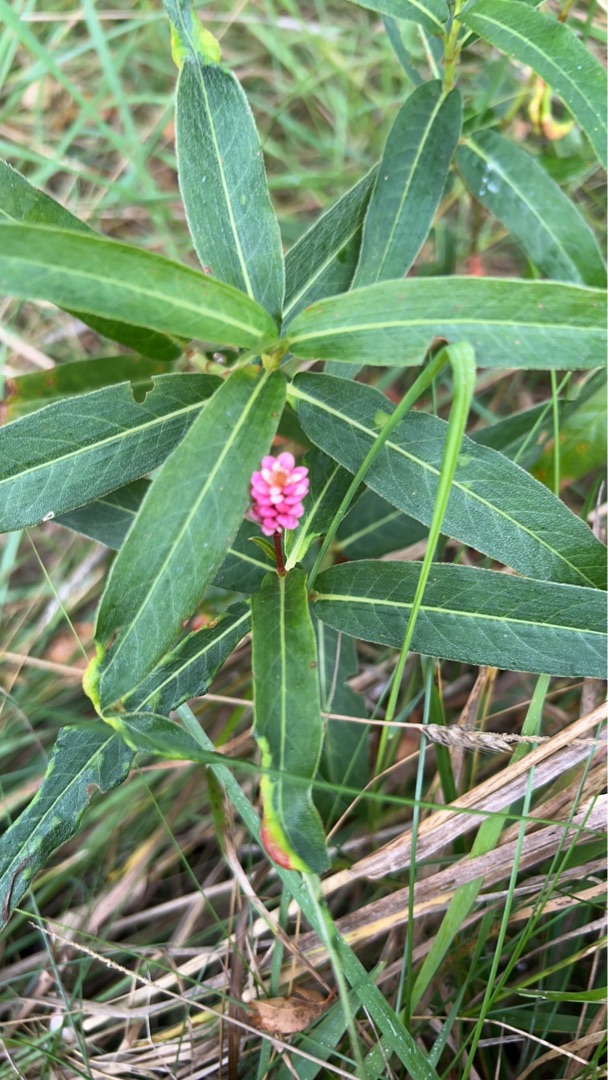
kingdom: Plantae
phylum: Tracheophyta
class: Magnoliopsida
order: Caryophyllales
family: Polygonaceae
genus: Persicaria
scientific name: Persicaria amphibia
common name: Vand-pileurt
